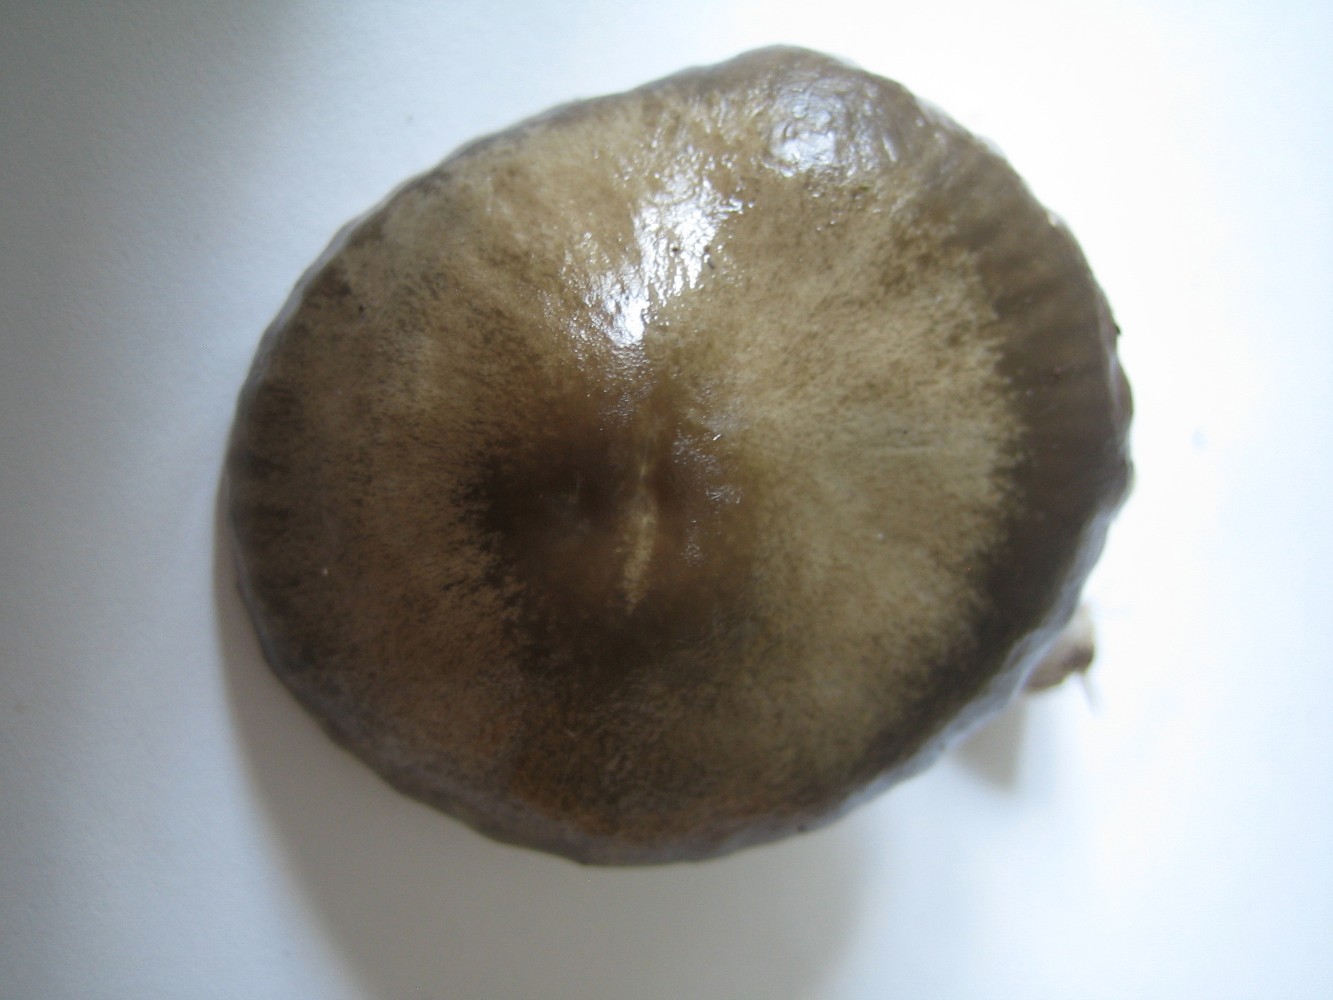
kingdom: Fungi
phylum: Basidiomycota
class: Agaricomycetes
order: Agaricales
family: Hygrophoraceae
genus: Gliophorus
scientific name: Gliophorus irrigatus
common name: slimet vokshat
